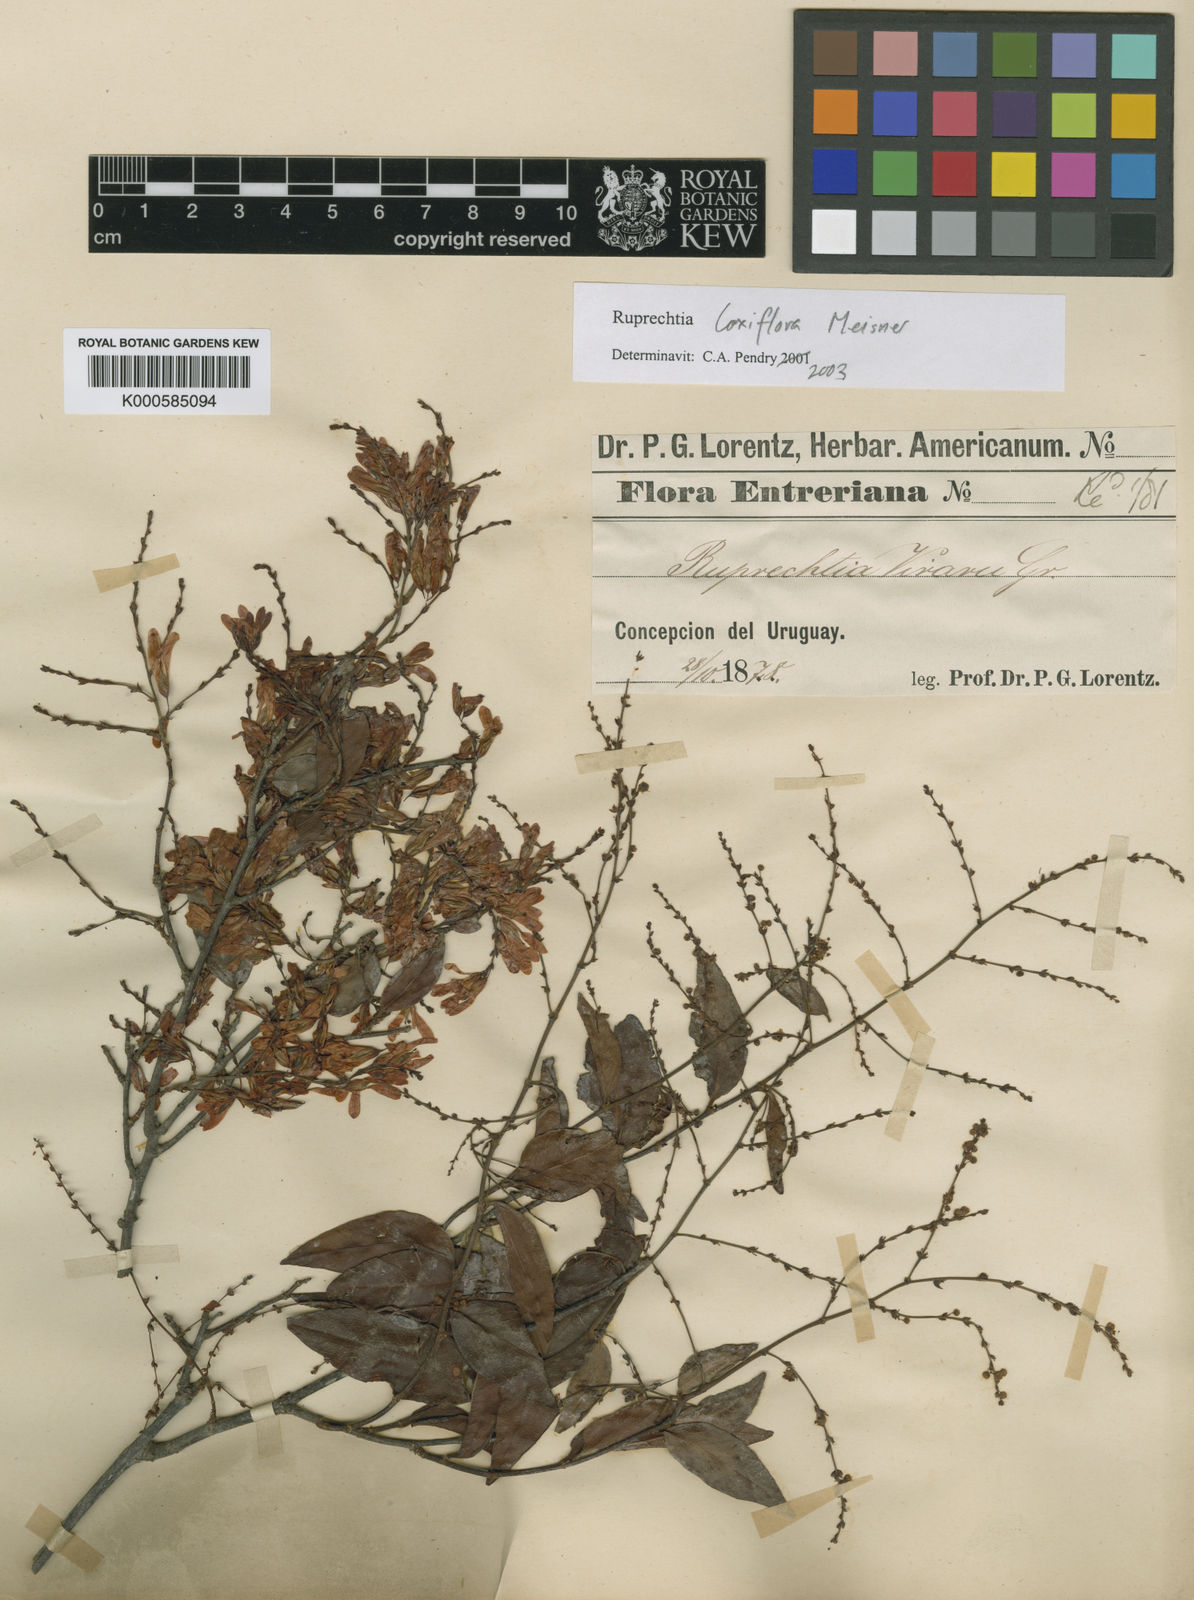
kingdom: Plantae
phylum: Tracheophyta
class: Magnoliopsida
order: Caryophyllales
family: Polygonaceae
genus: Ruprechtia
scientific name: Ruprechtia laxiflora
